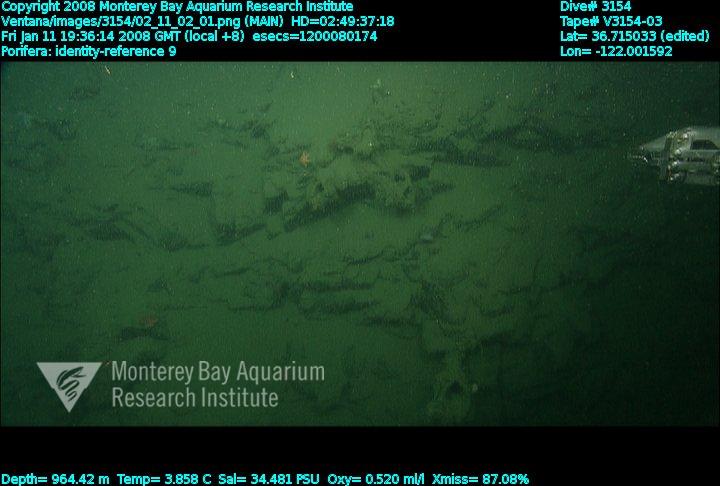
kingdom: Animalia
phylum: Porifera
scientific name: Porifera
